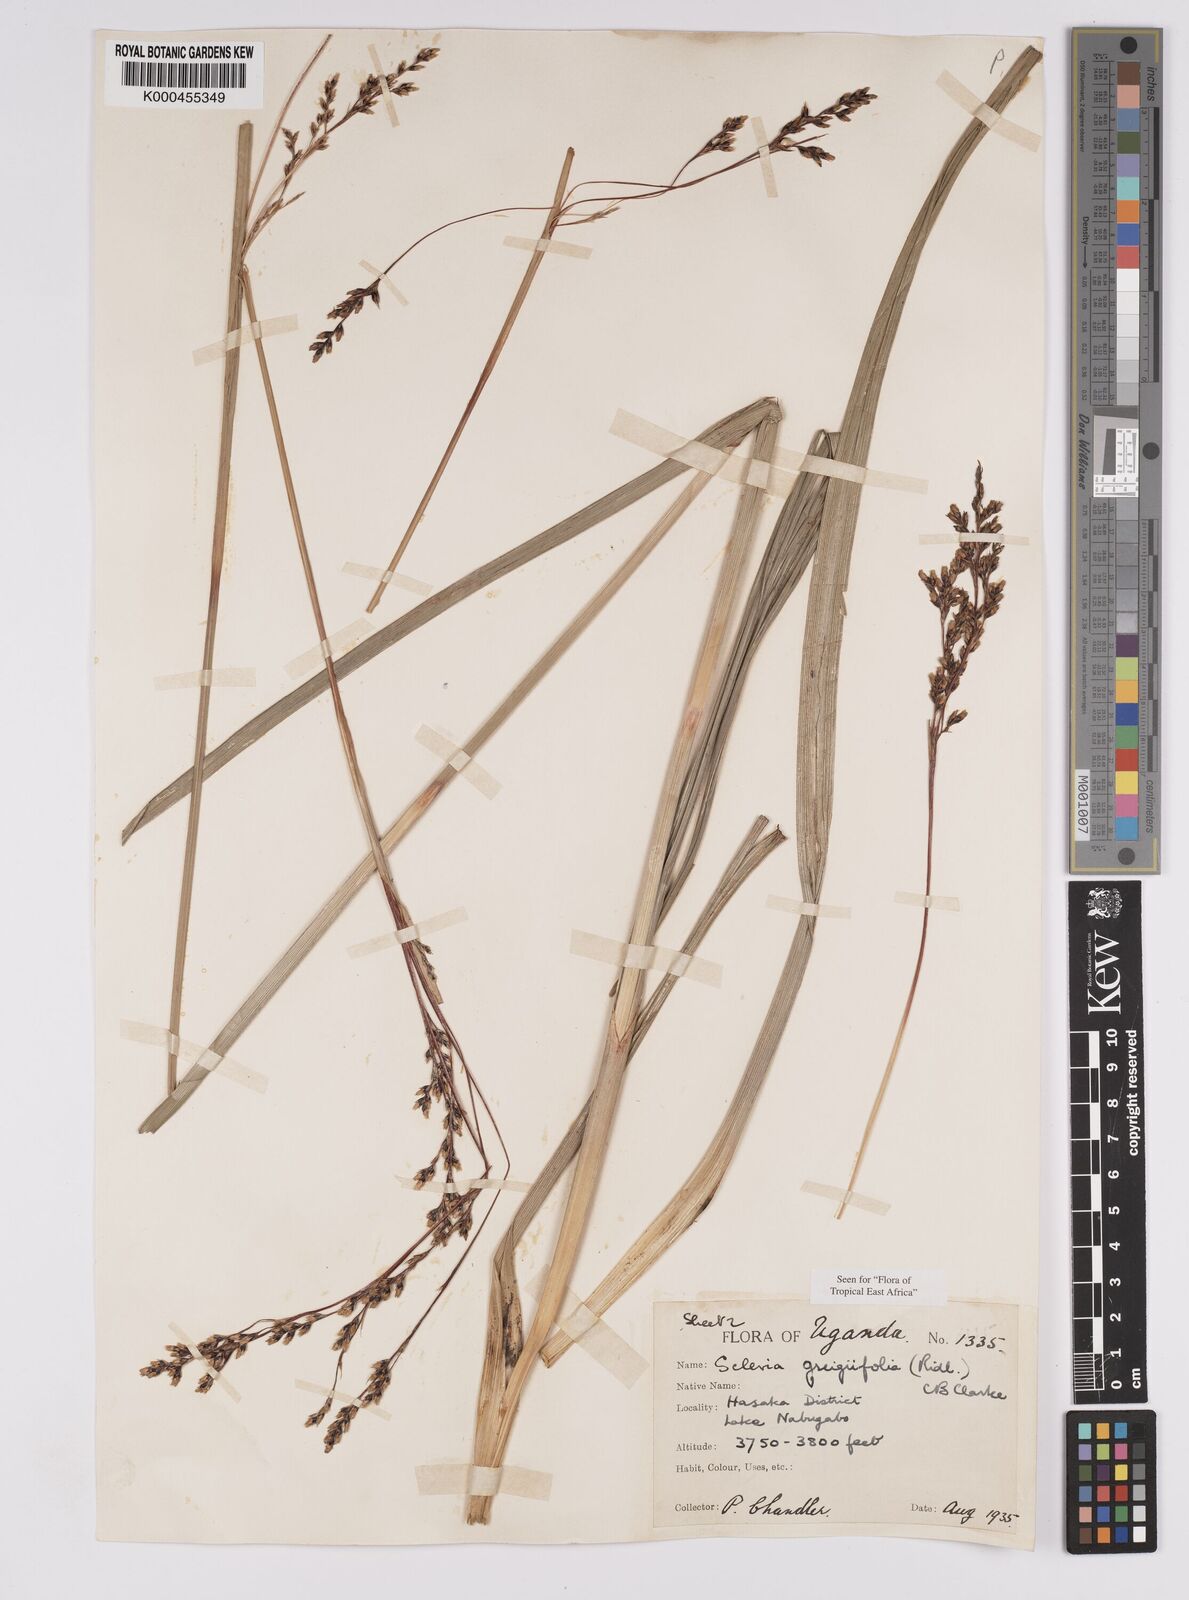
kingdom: Plantae
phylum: Tracheophyta
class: Liliopsida
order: Poales
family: Cyperaceae
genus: Scleria
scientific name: Scleria greigiifolia
